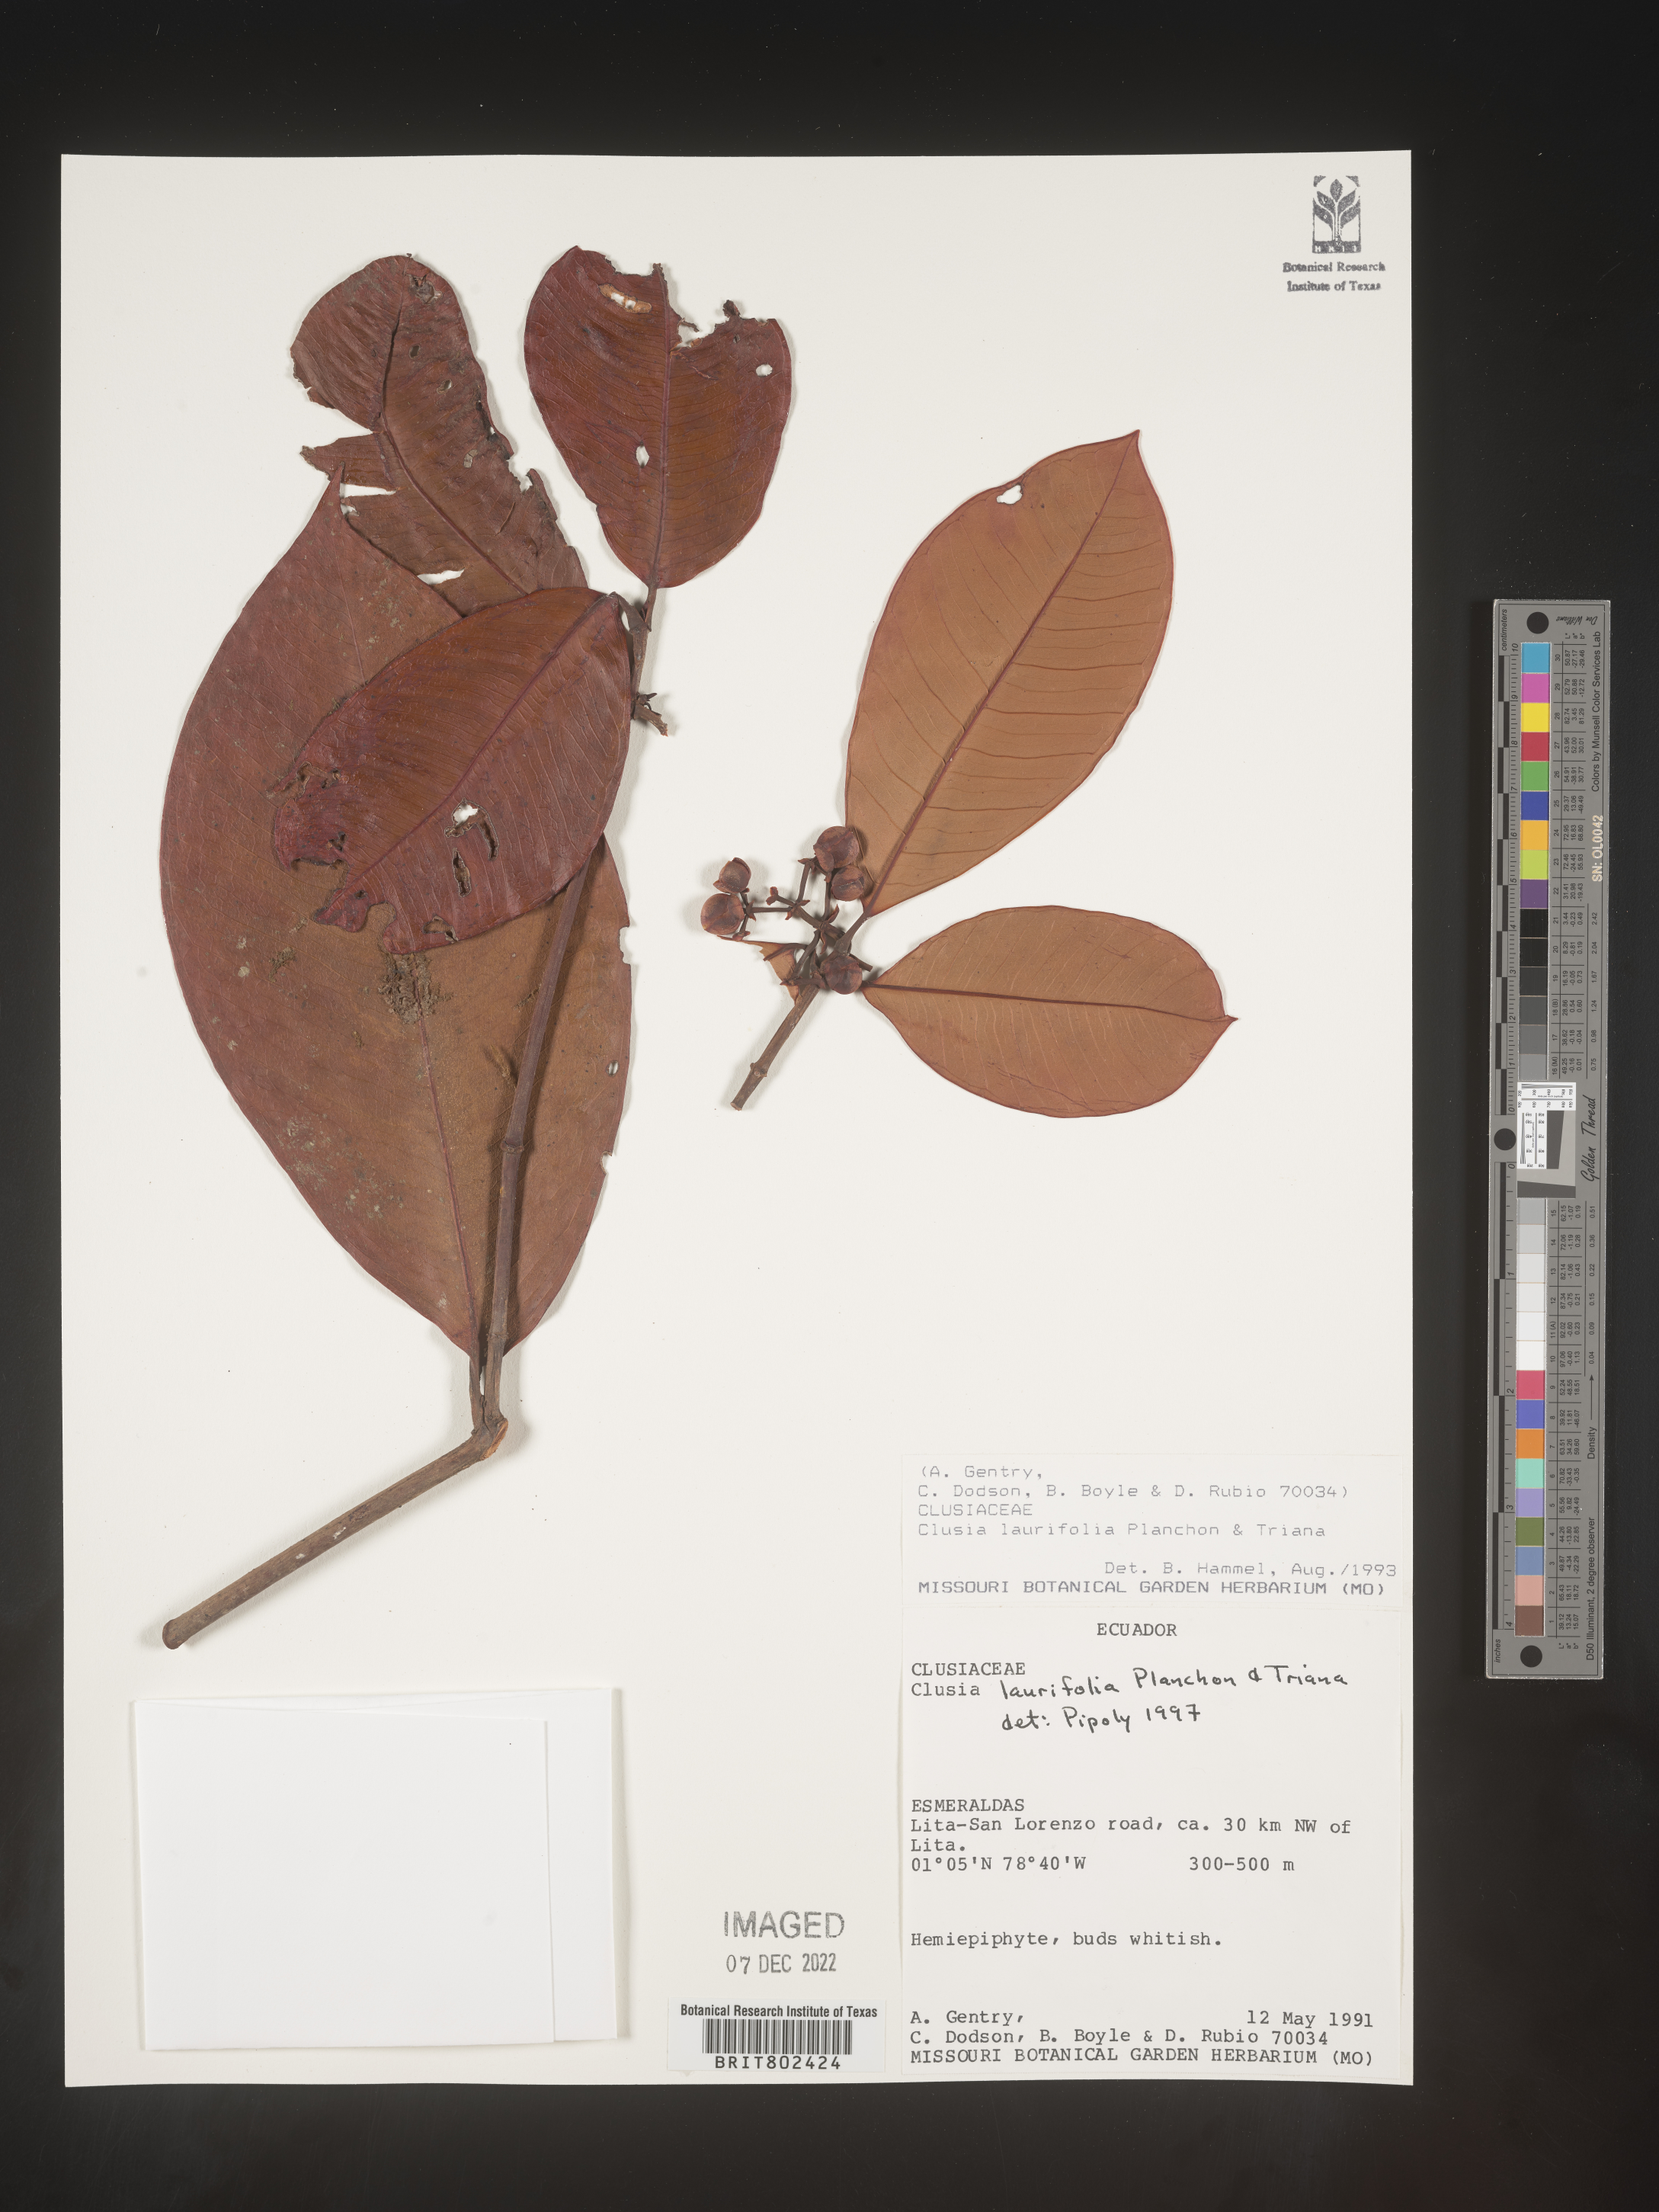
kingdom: Plantae
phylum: Tracheophyta
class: Magnoliopsida
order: Malpighiales
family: Clusiaceae
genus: Clusia
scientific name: Clusia laurifolia
